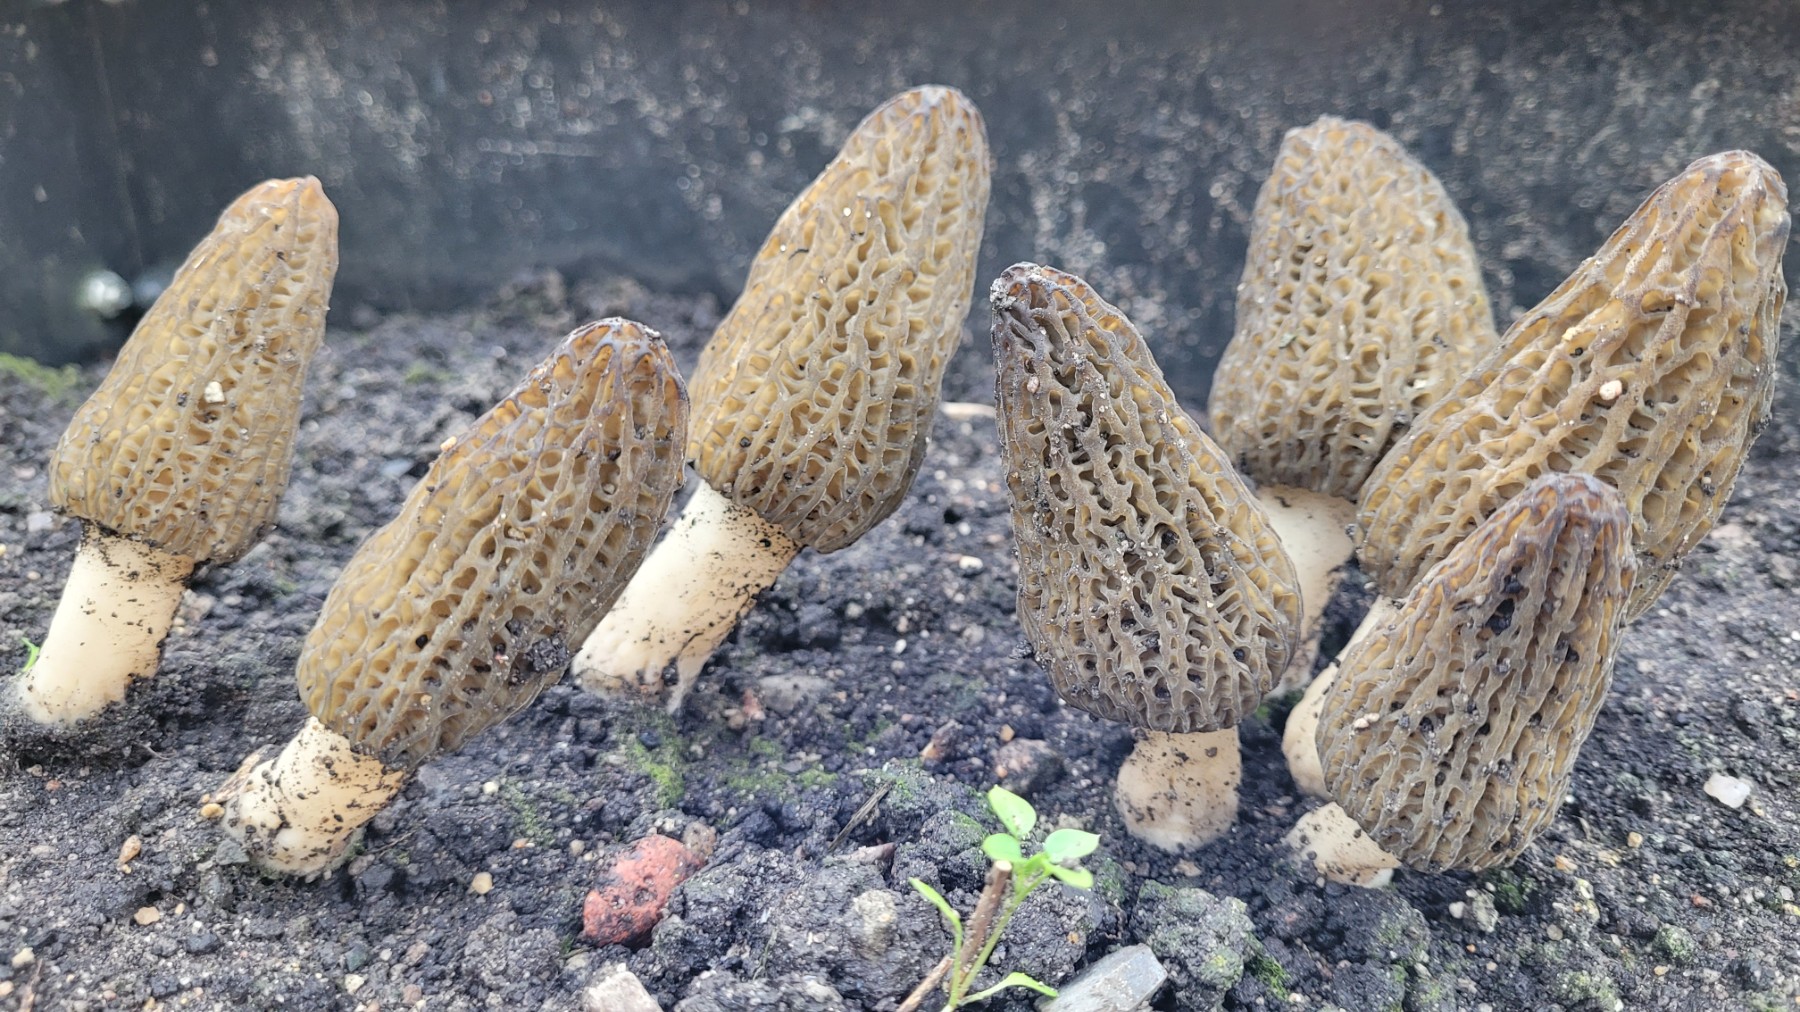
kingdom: Fungi
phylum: Ascomycota
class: Pezizomycetes
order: Pezizales
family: Morchellaceae
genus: Morchella
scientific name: Morchella importuna
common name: Landscaping black morel
